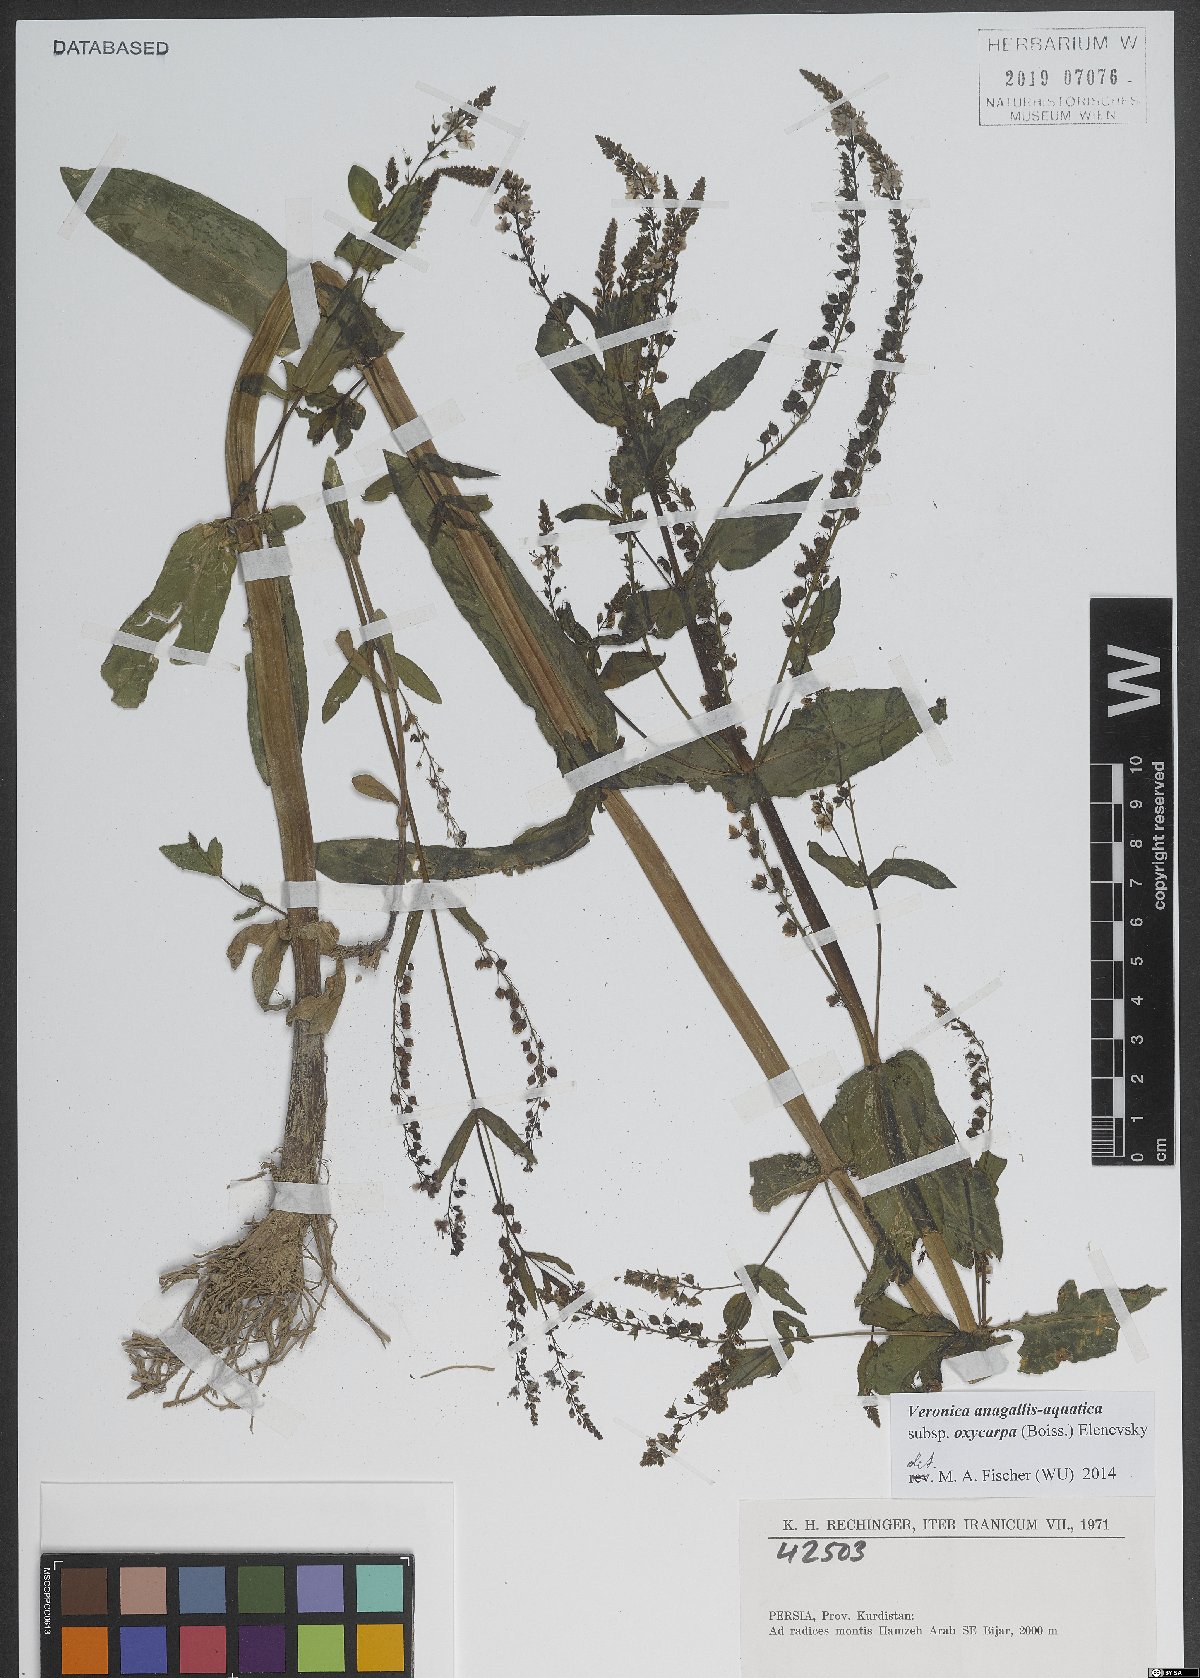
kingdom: Plantae
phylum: Tracheophyta
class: Magnoliopsida
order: Lamiales
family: Plantaginaceae
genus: Veronica
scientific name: Veronica oxycarpa
